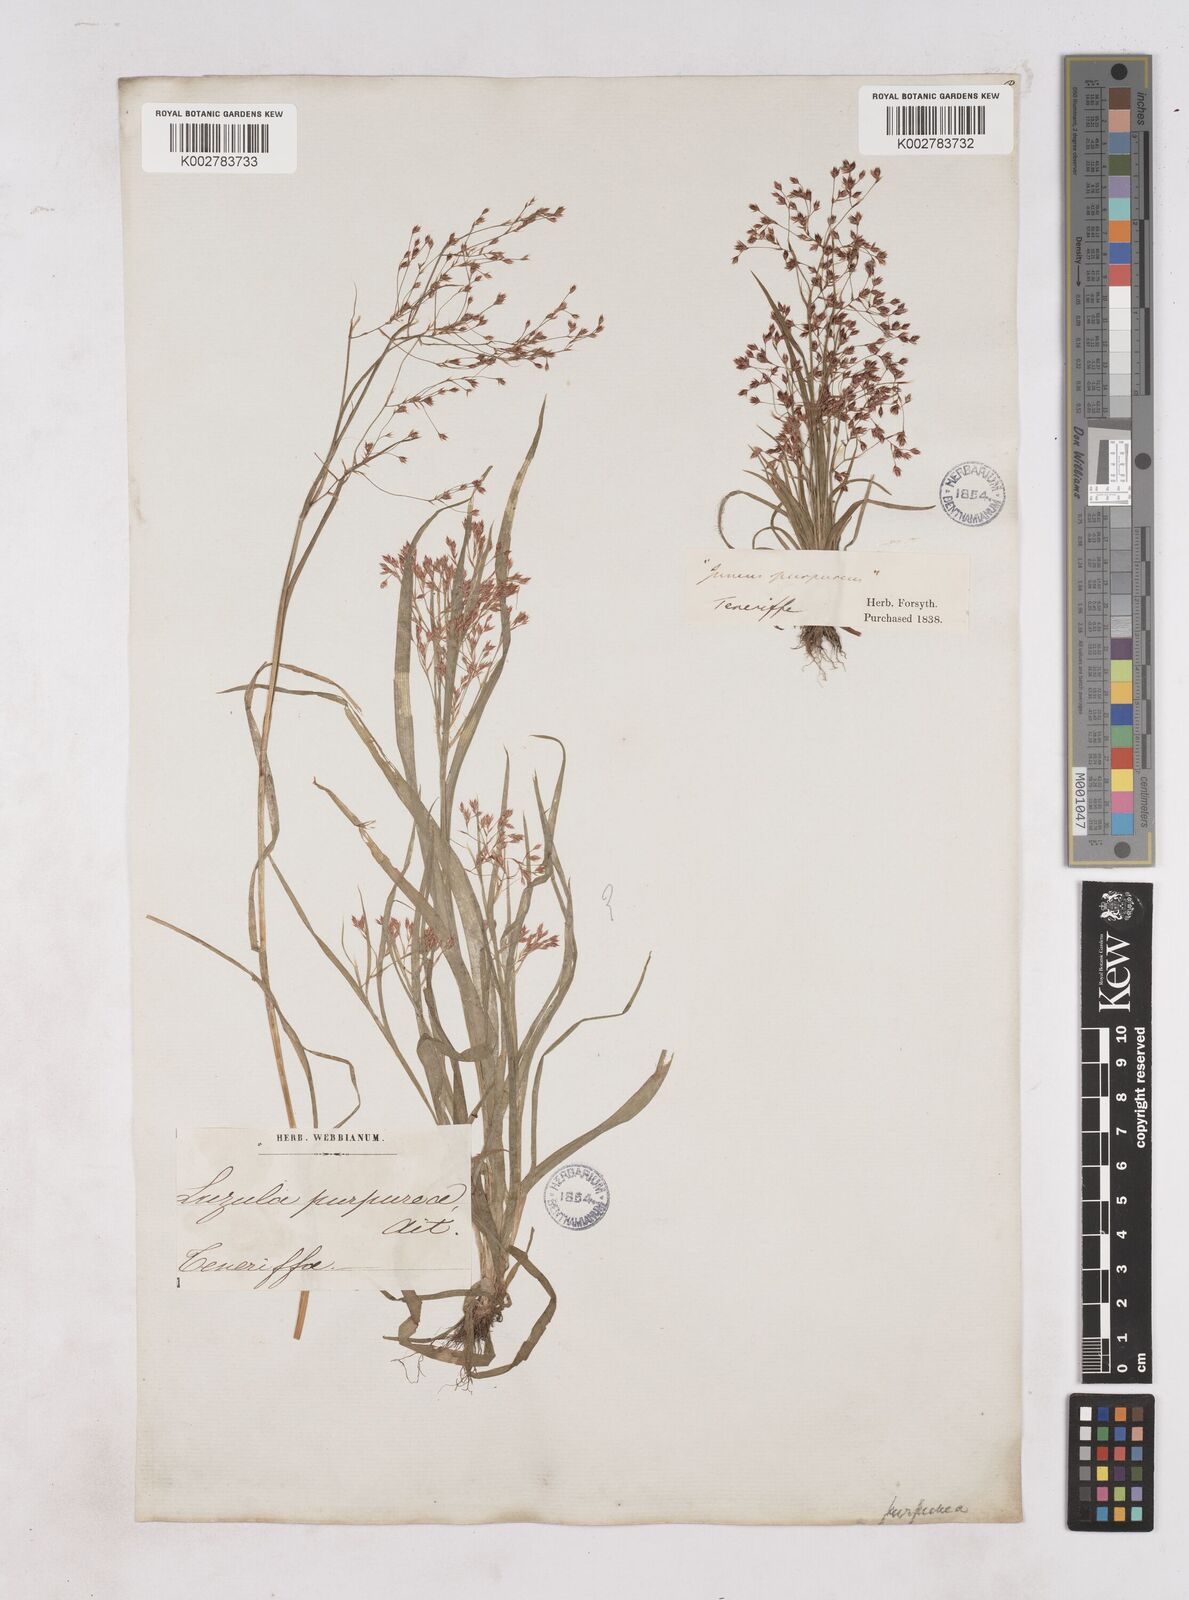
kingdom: Plantae
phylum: Tracheophyta
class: Liliopsida
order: Poales
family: Juncaceae
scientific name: Juncaceae
